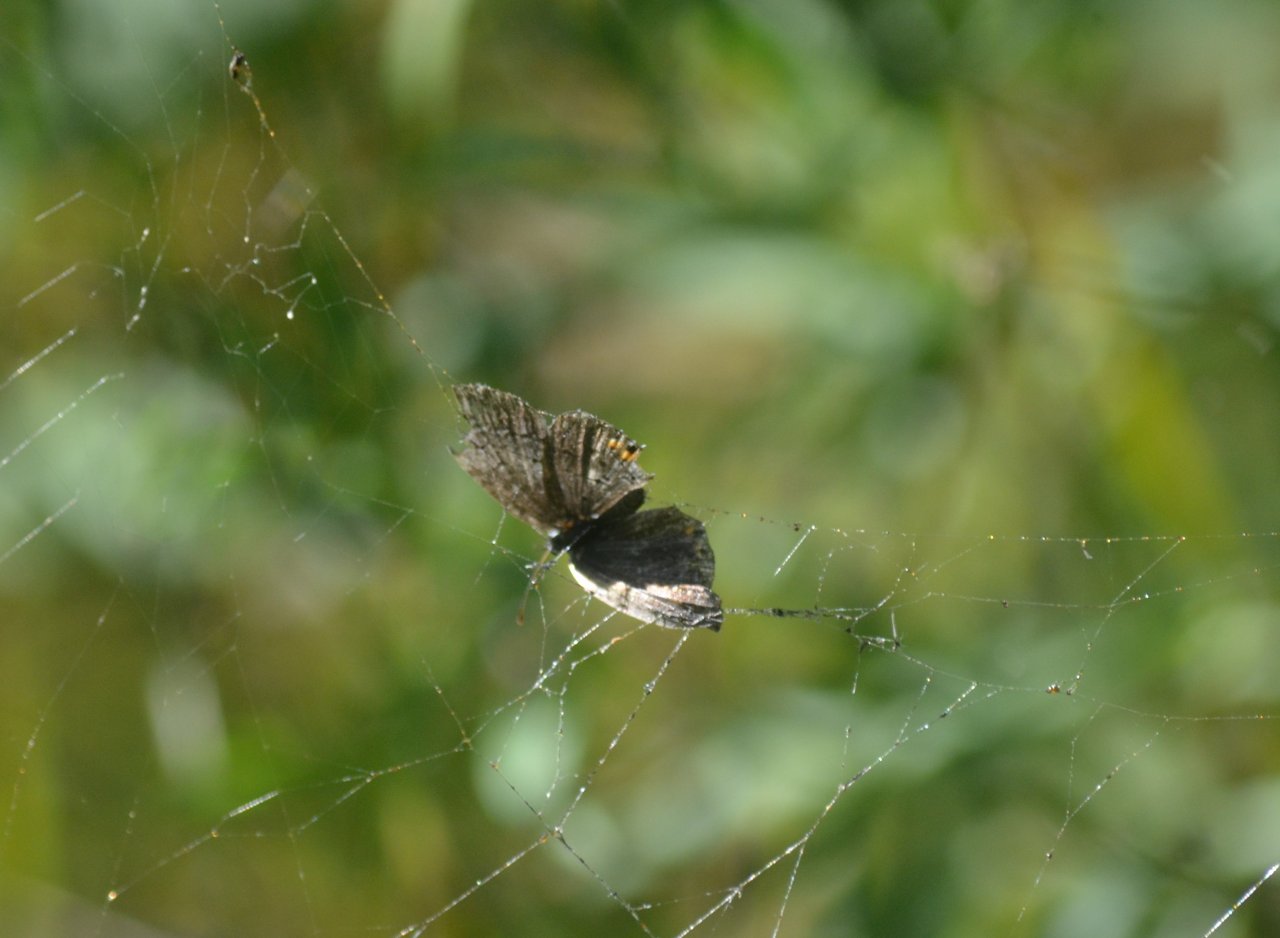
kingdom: Animalia
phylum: Arthropoda
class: Insecta
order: Lepidoptera
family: Lycaenidae
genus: Elkalyce
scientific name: Elkalyce comyntas
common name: Eastern Tailed-Blue
